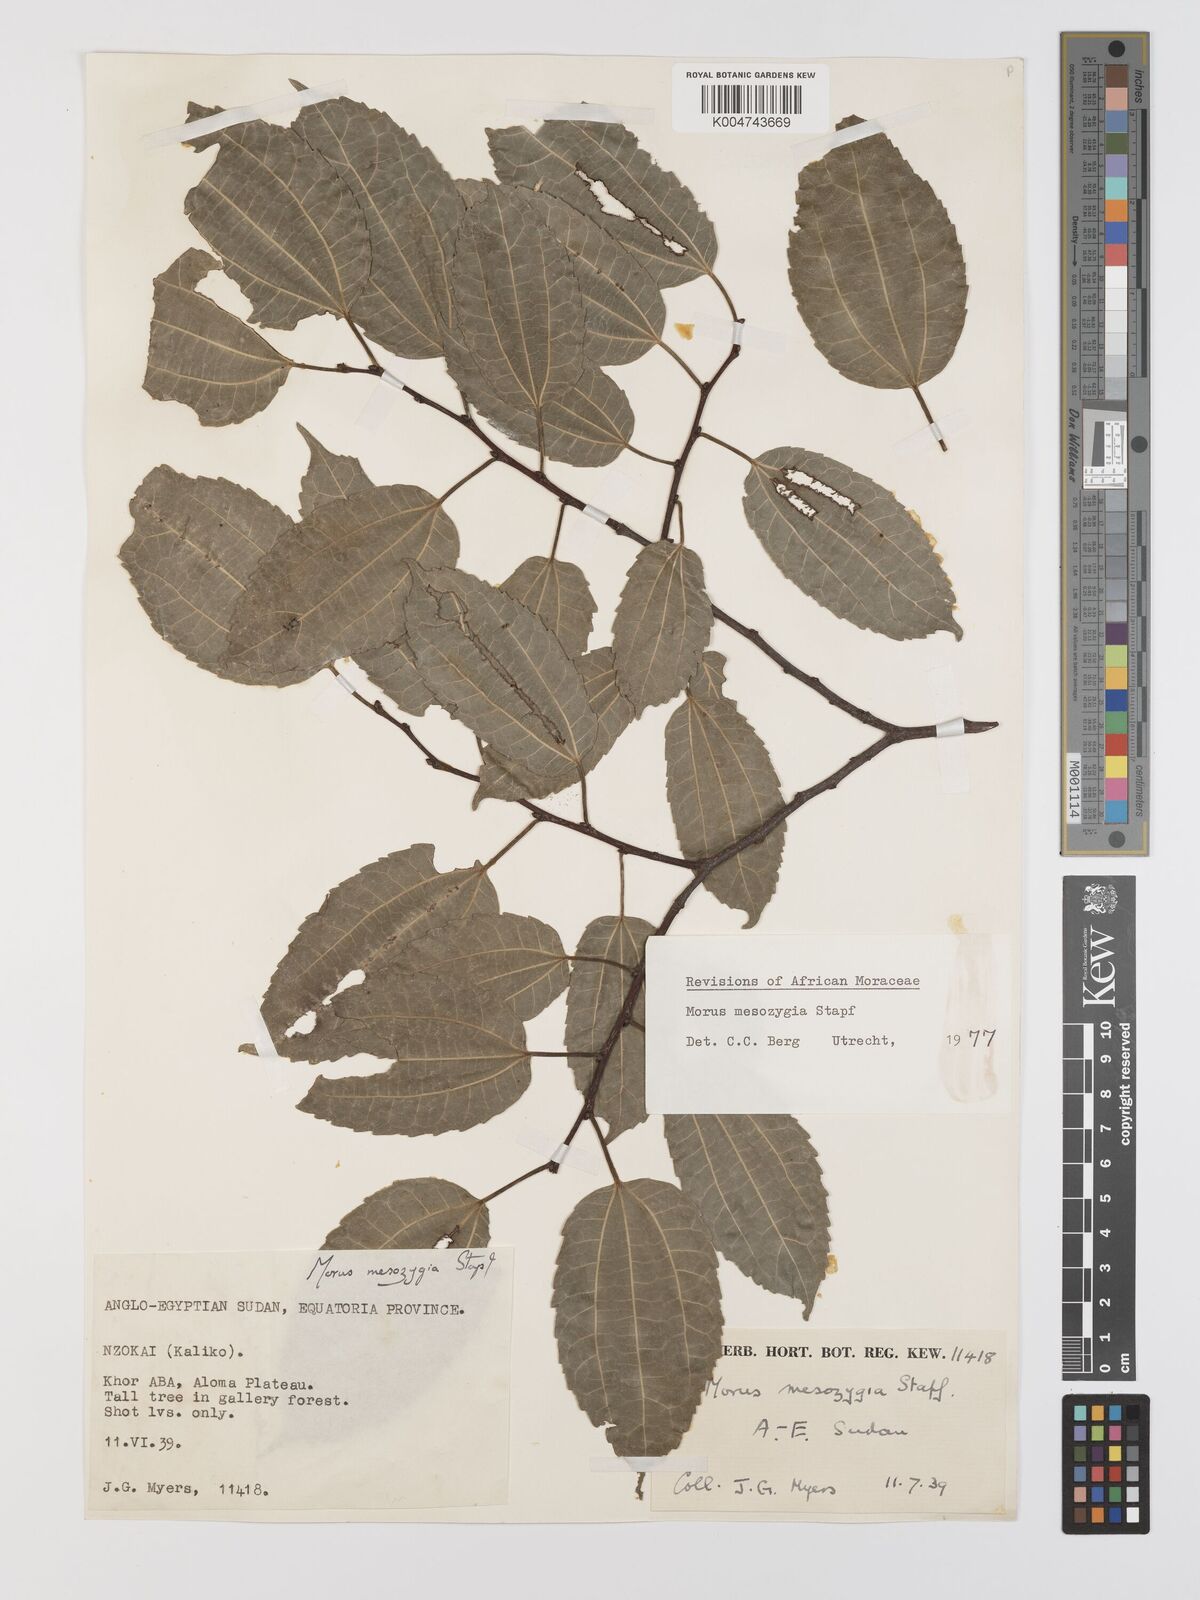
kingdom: Plantae
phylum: Tracheophyta
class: Magnoliopsida
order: Rosales
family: Moraceae
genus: Afromorus
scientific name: Afromorus mesozygia
